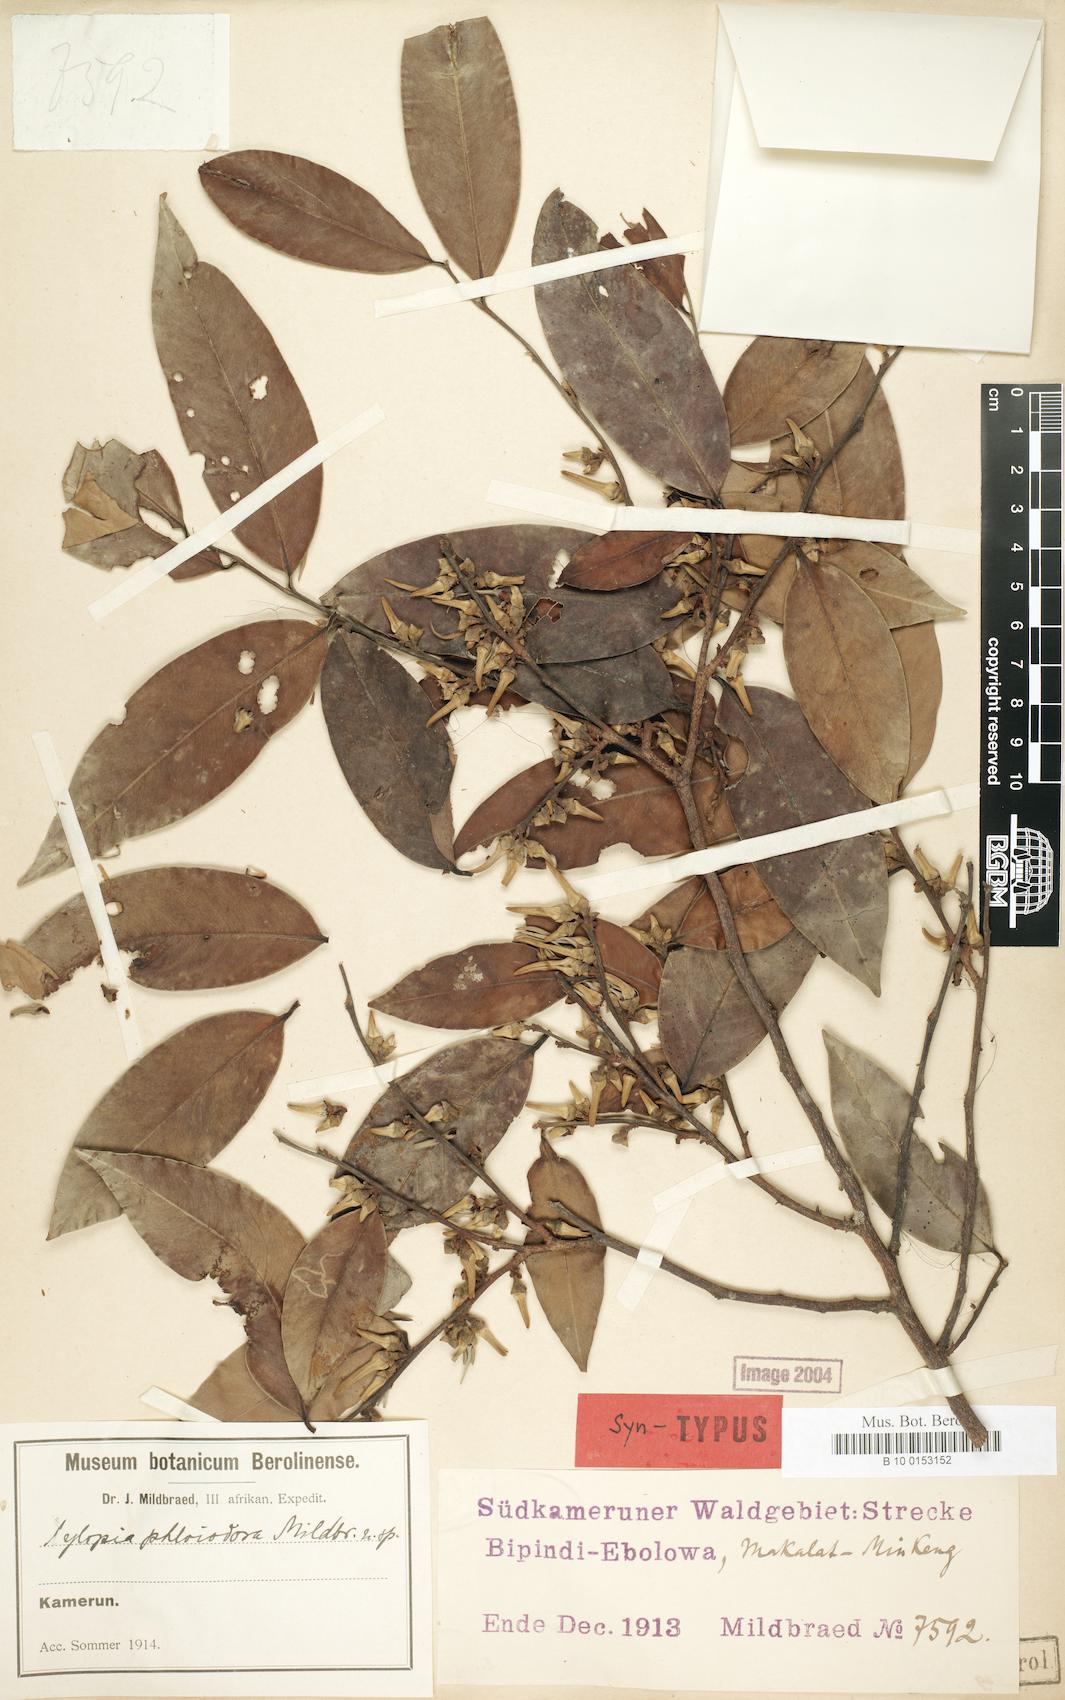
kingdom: Plantae
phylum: Tracheophyta
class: Magnoliopsida
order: Magnoliales
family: Annonaceae
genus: Xylopia
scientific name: Xylopia phloiodora
